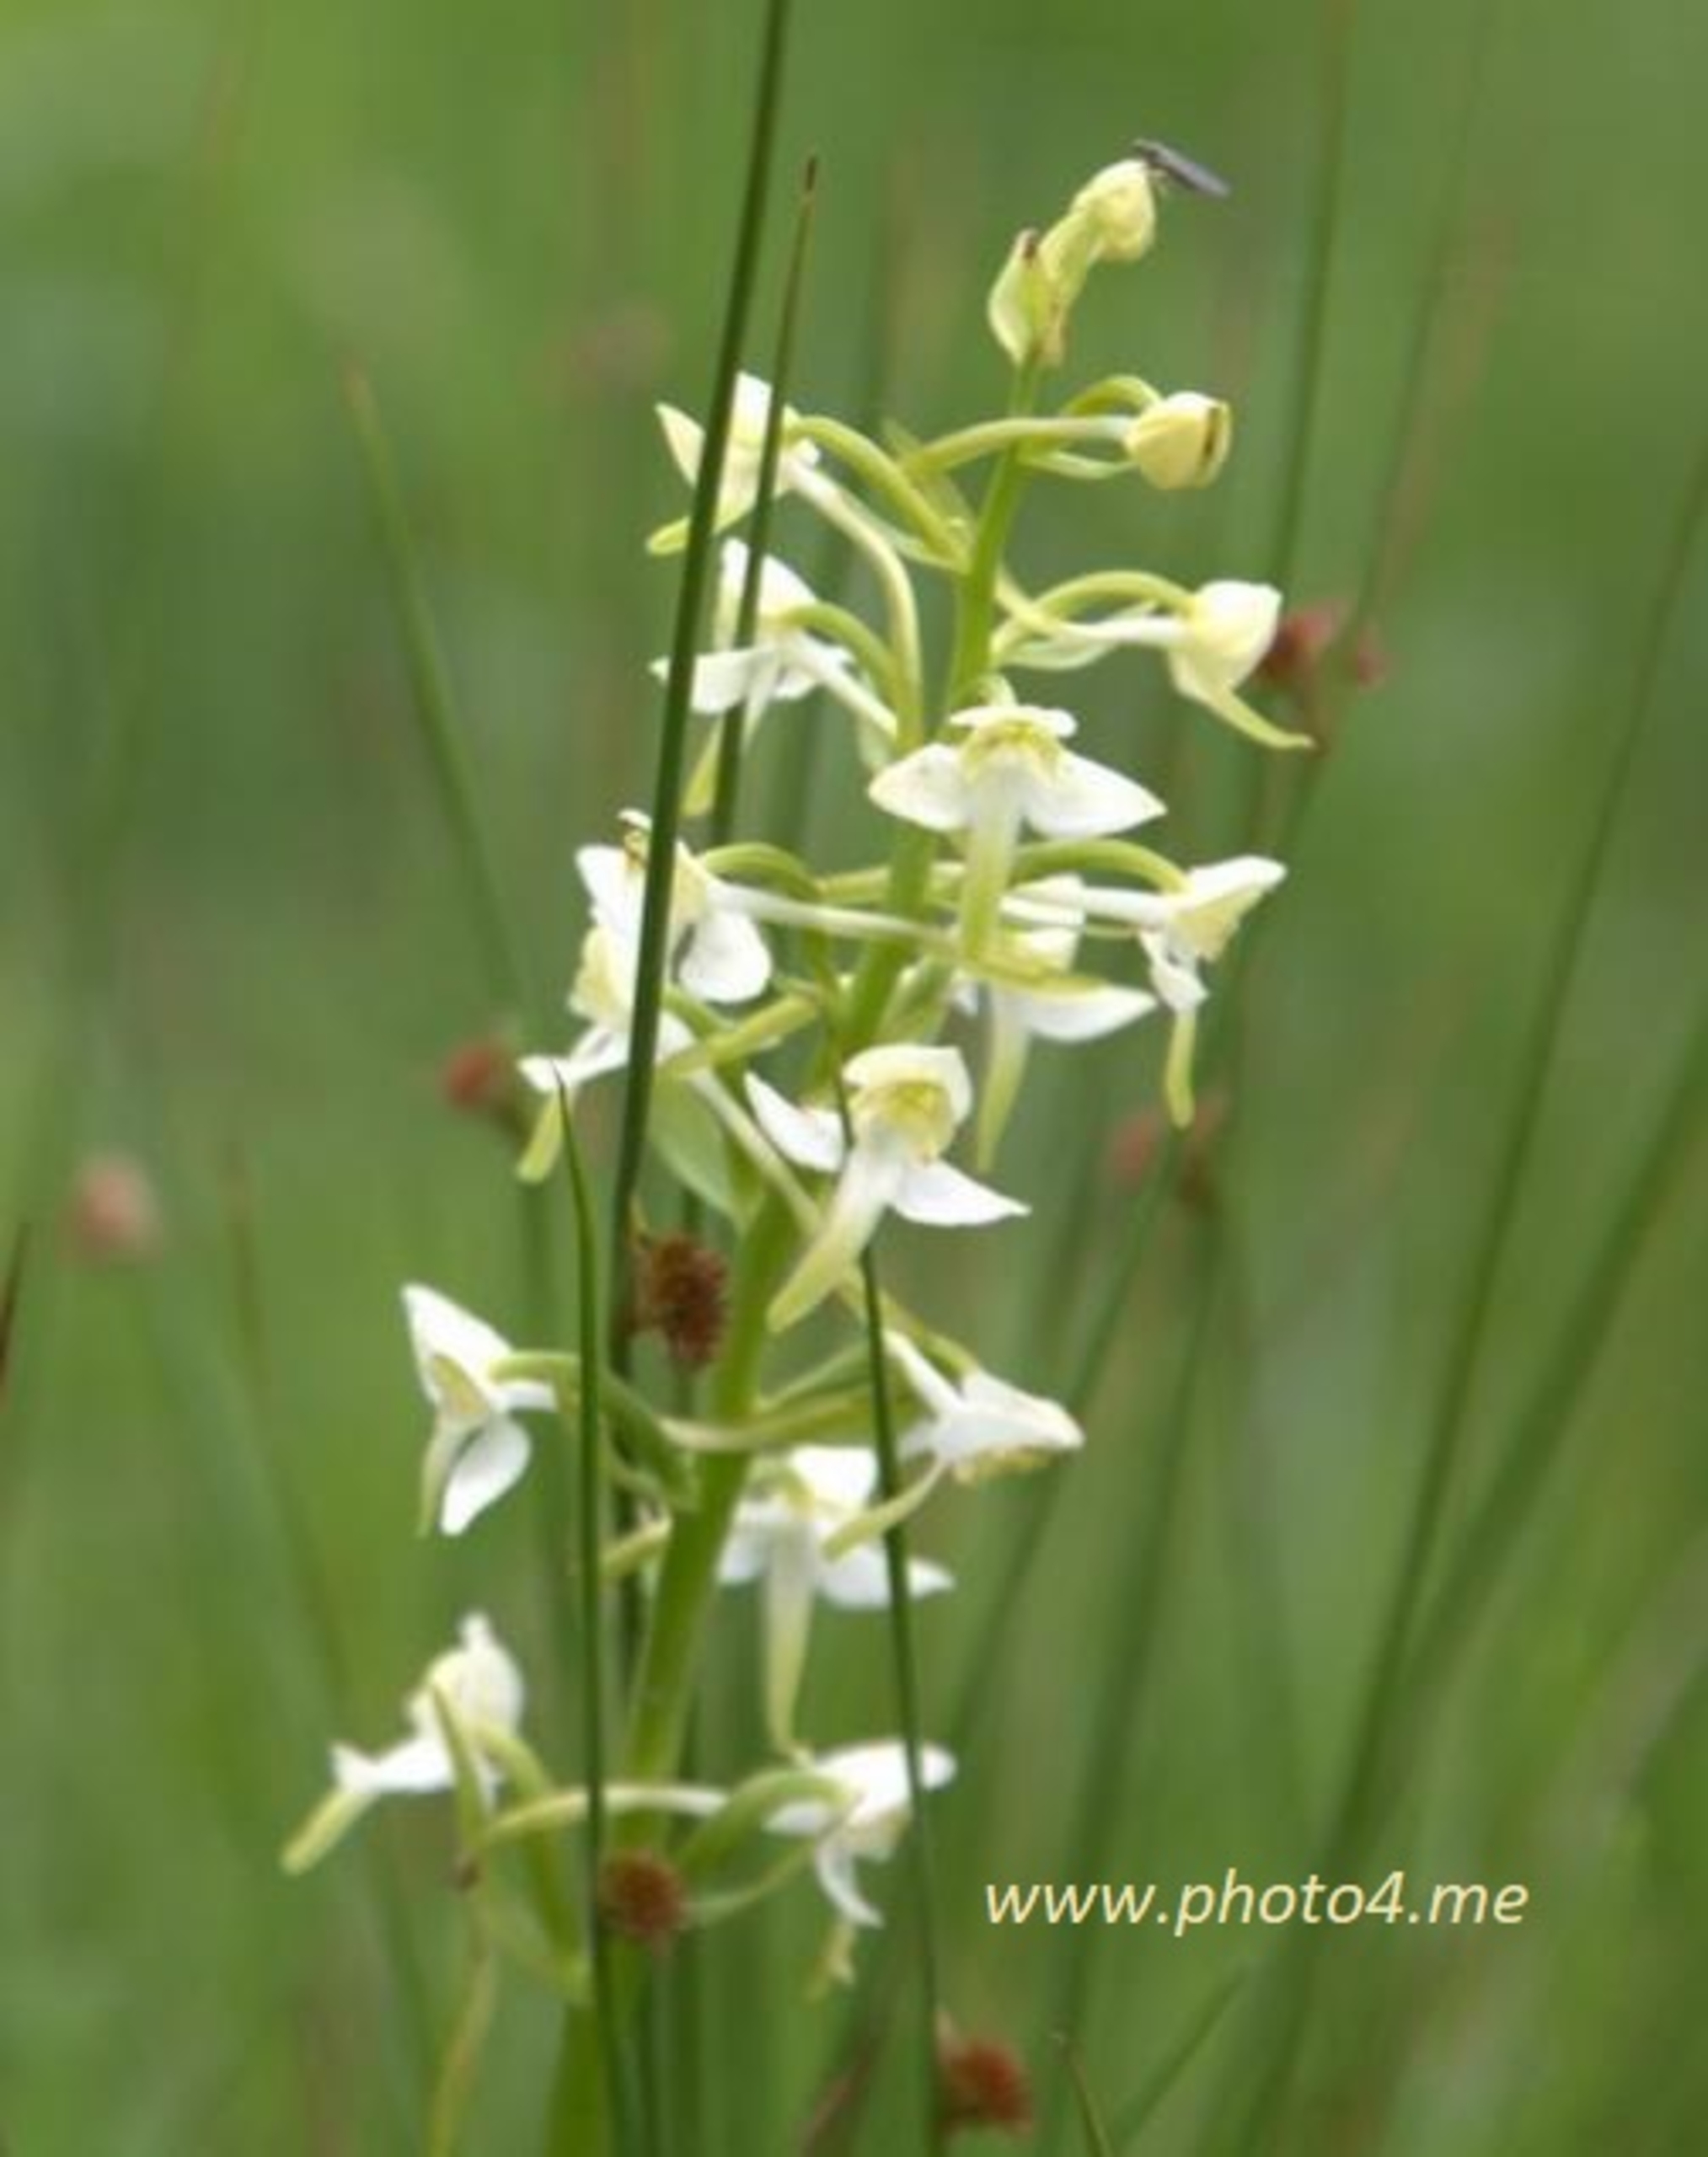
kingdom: Plantae
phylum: Tracheophyta
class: Liliopsida
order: Asparagales
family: Orchidaceae
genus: Platanthera
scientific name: Platanthera chlorantha
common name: Skov-gøgelilje
